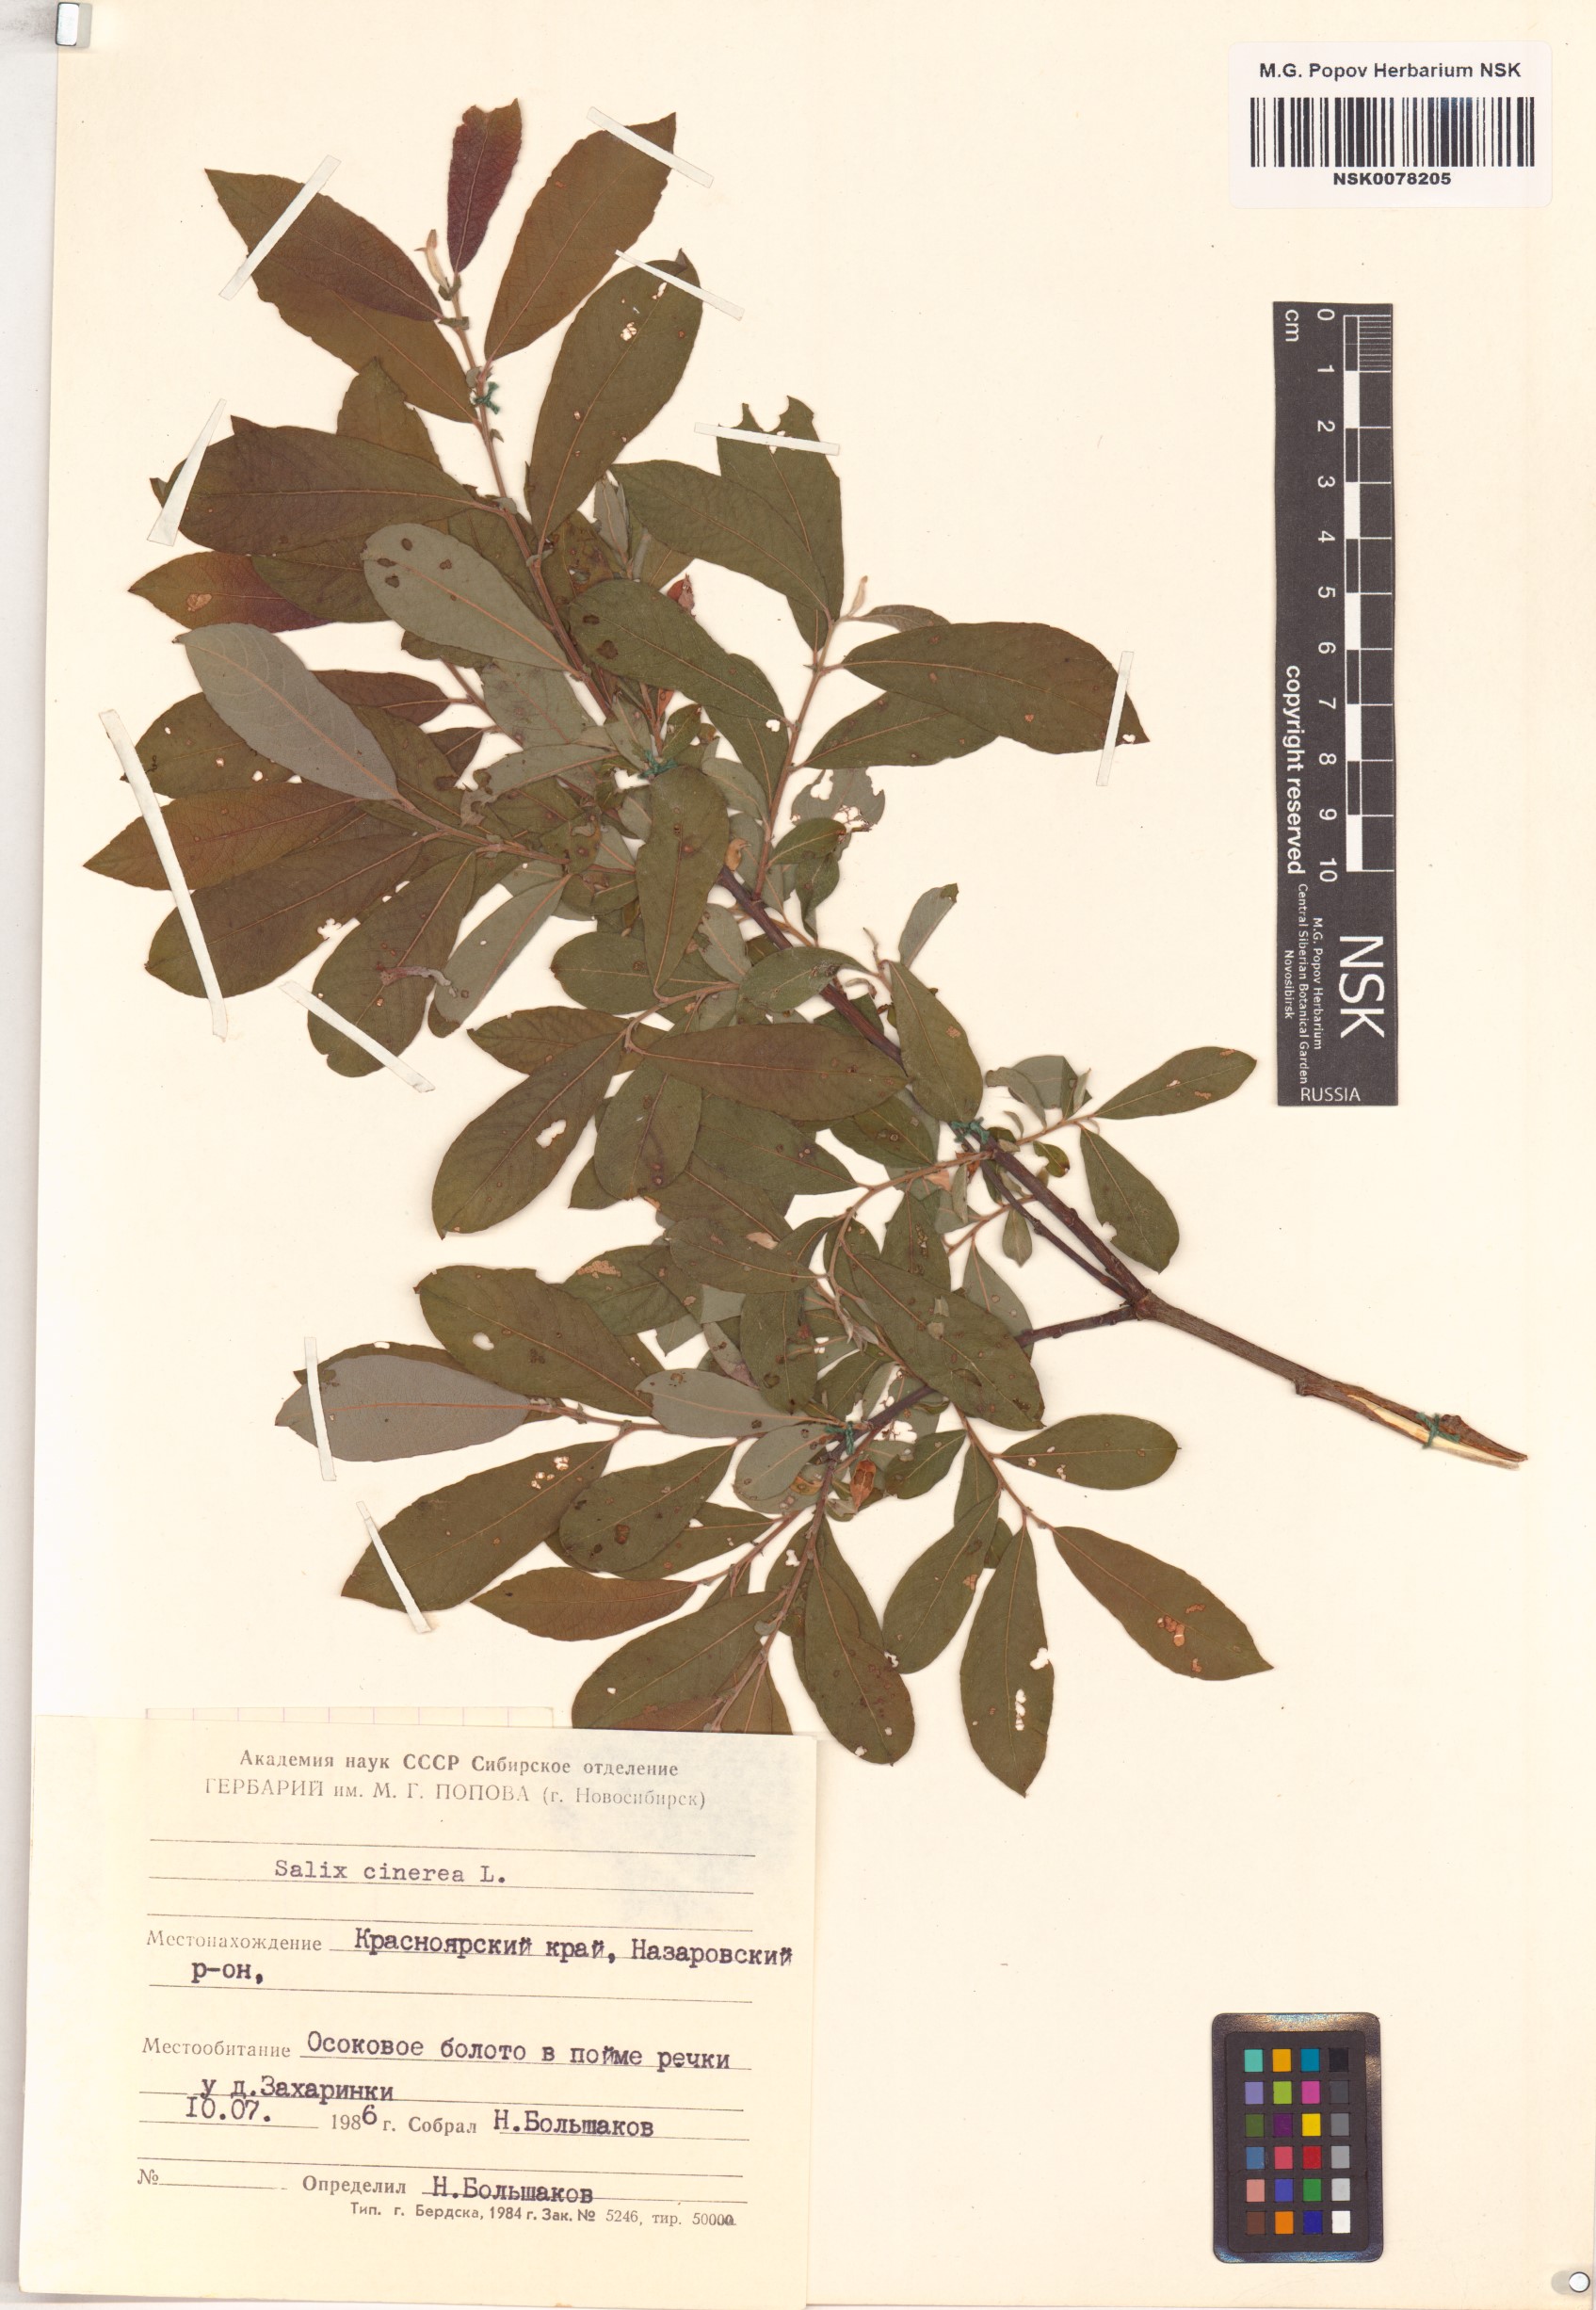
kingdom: Plantae
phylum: Tracheophyta
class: Magnoliopsida
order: Malpighiales
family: Salicaceae
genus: Salix
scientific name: Salix cinerea
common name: Common sallow
